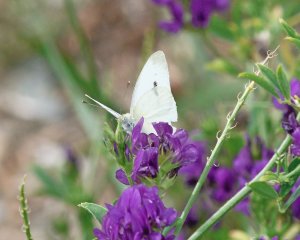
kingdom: Animalia
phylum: Arthropoda
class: Insecta
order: Lepidoptera
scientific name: Lepidoptera
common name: Butterflies
